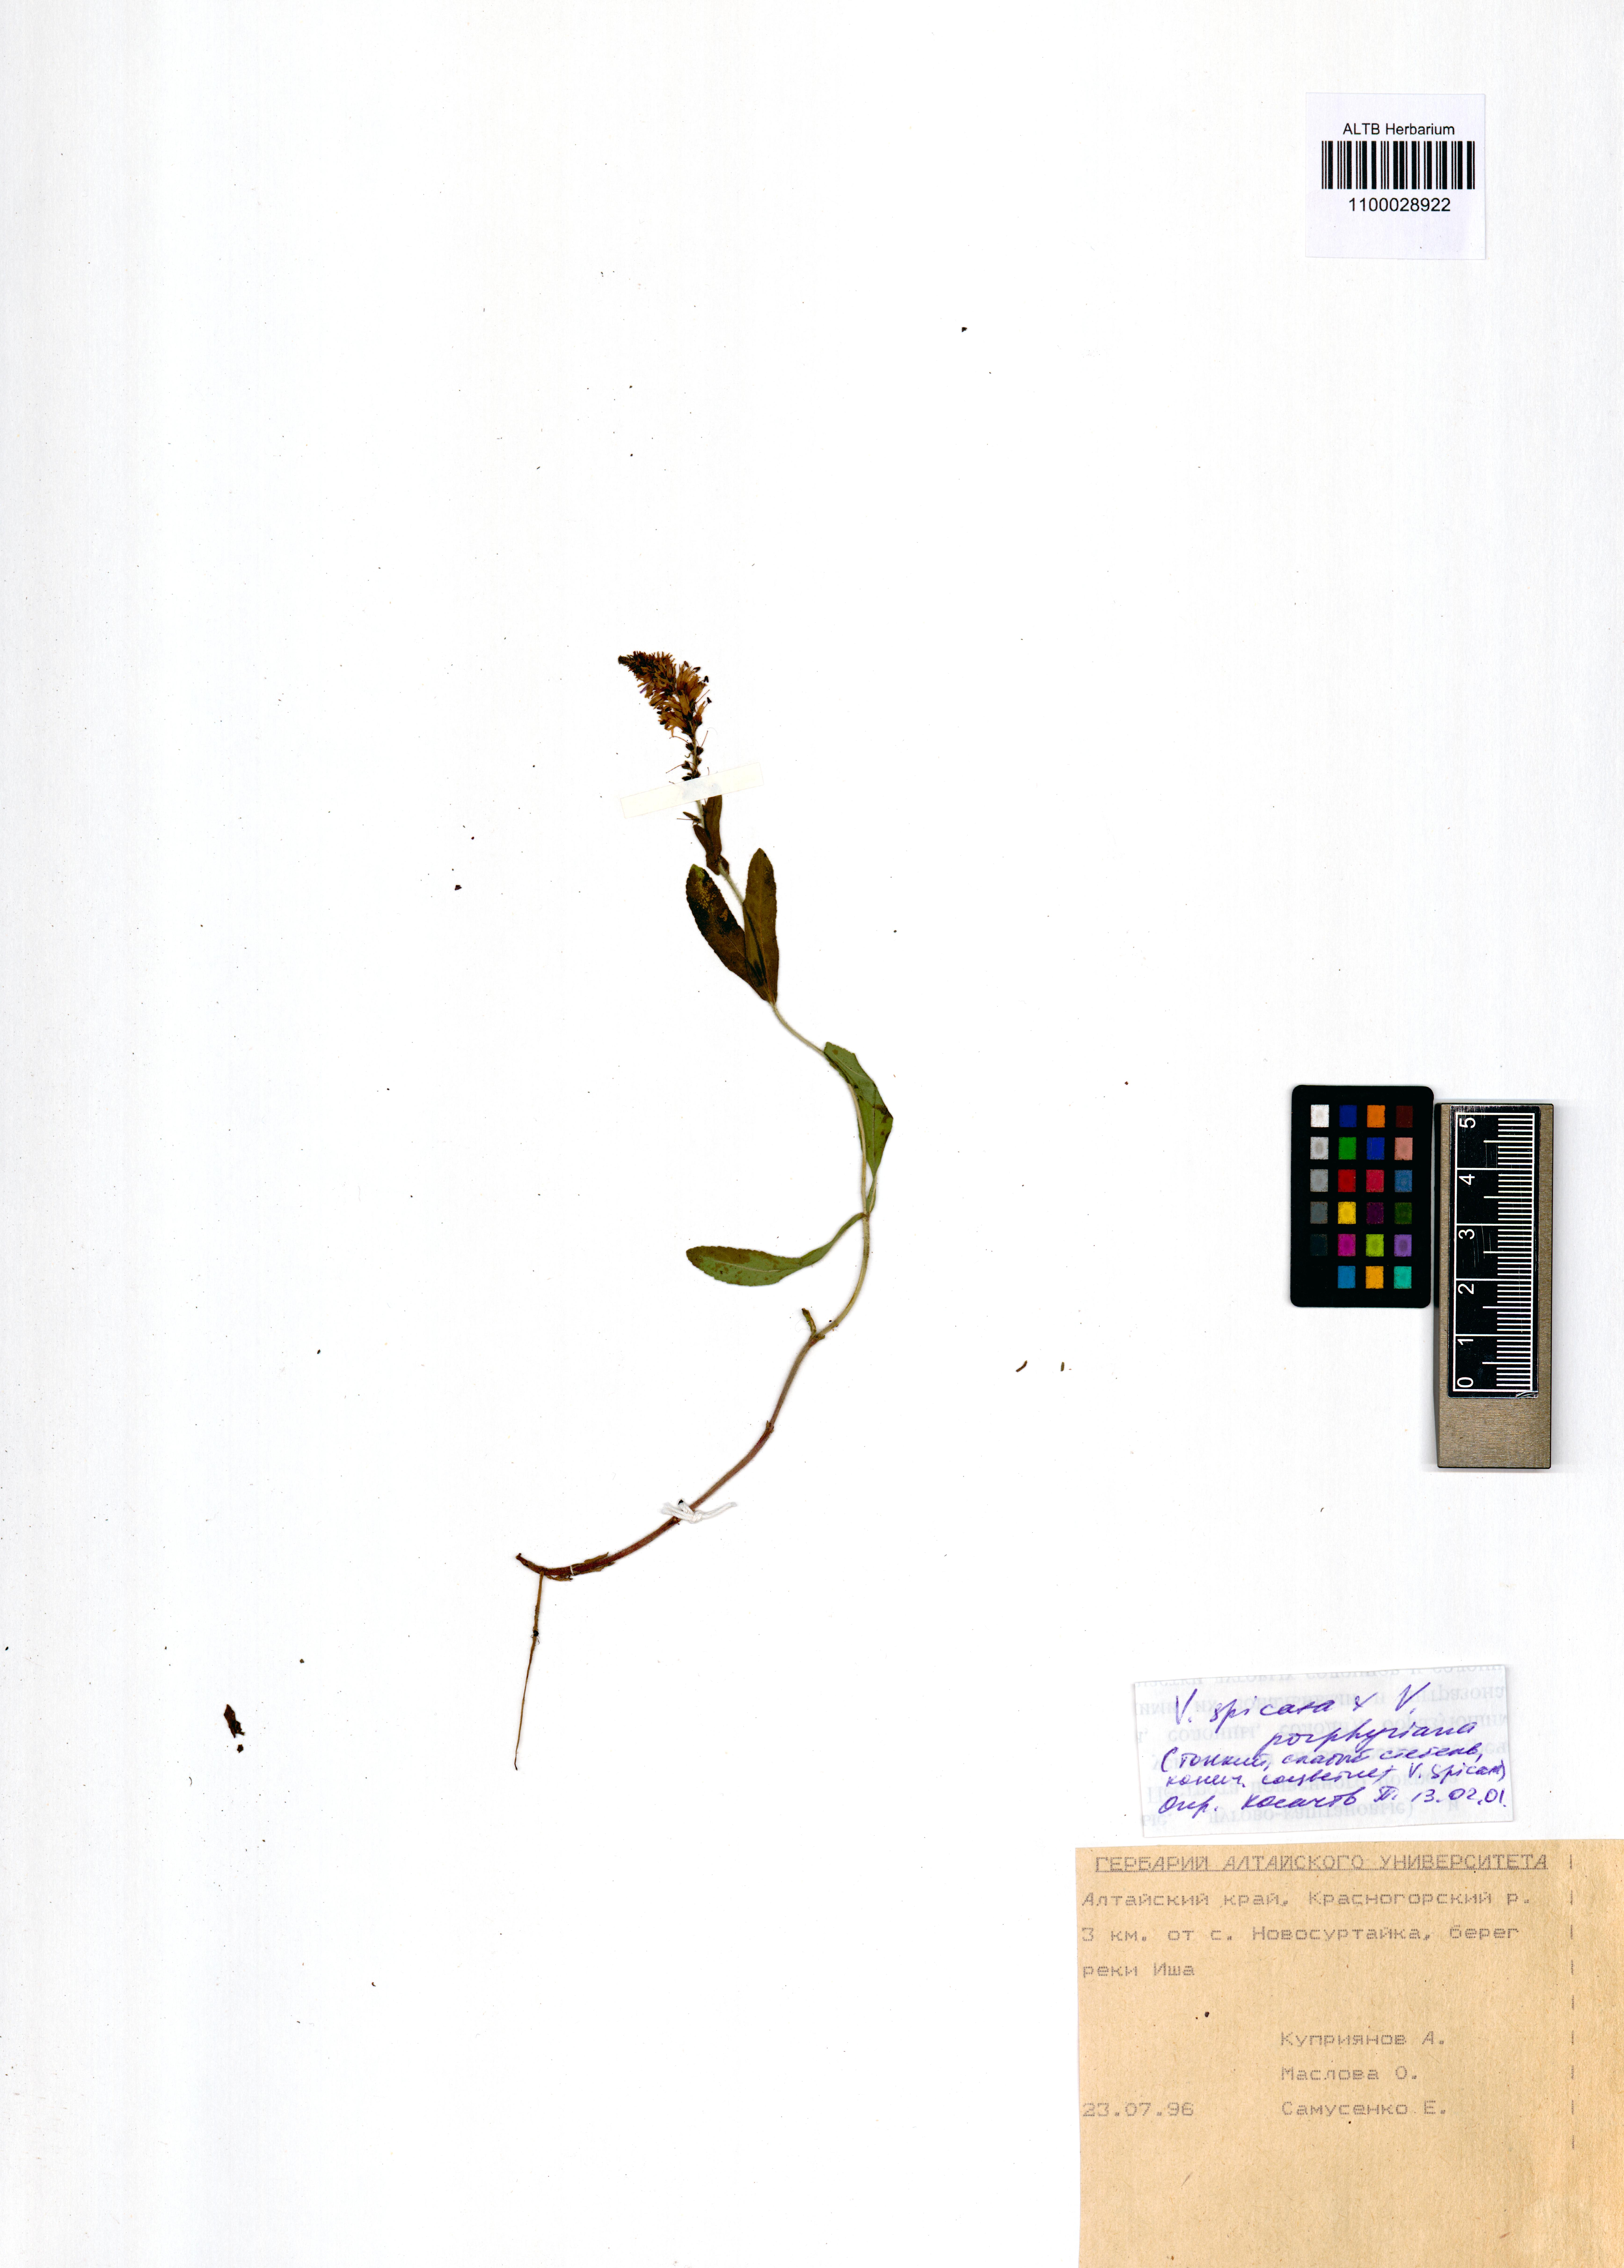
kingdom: Plantae
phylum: Tracheophyta
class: Magnoliopsida
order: Lamiales
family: Plantaginaceae
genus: Veronica
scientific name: Veronica spicata
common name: Spiked speedwell
